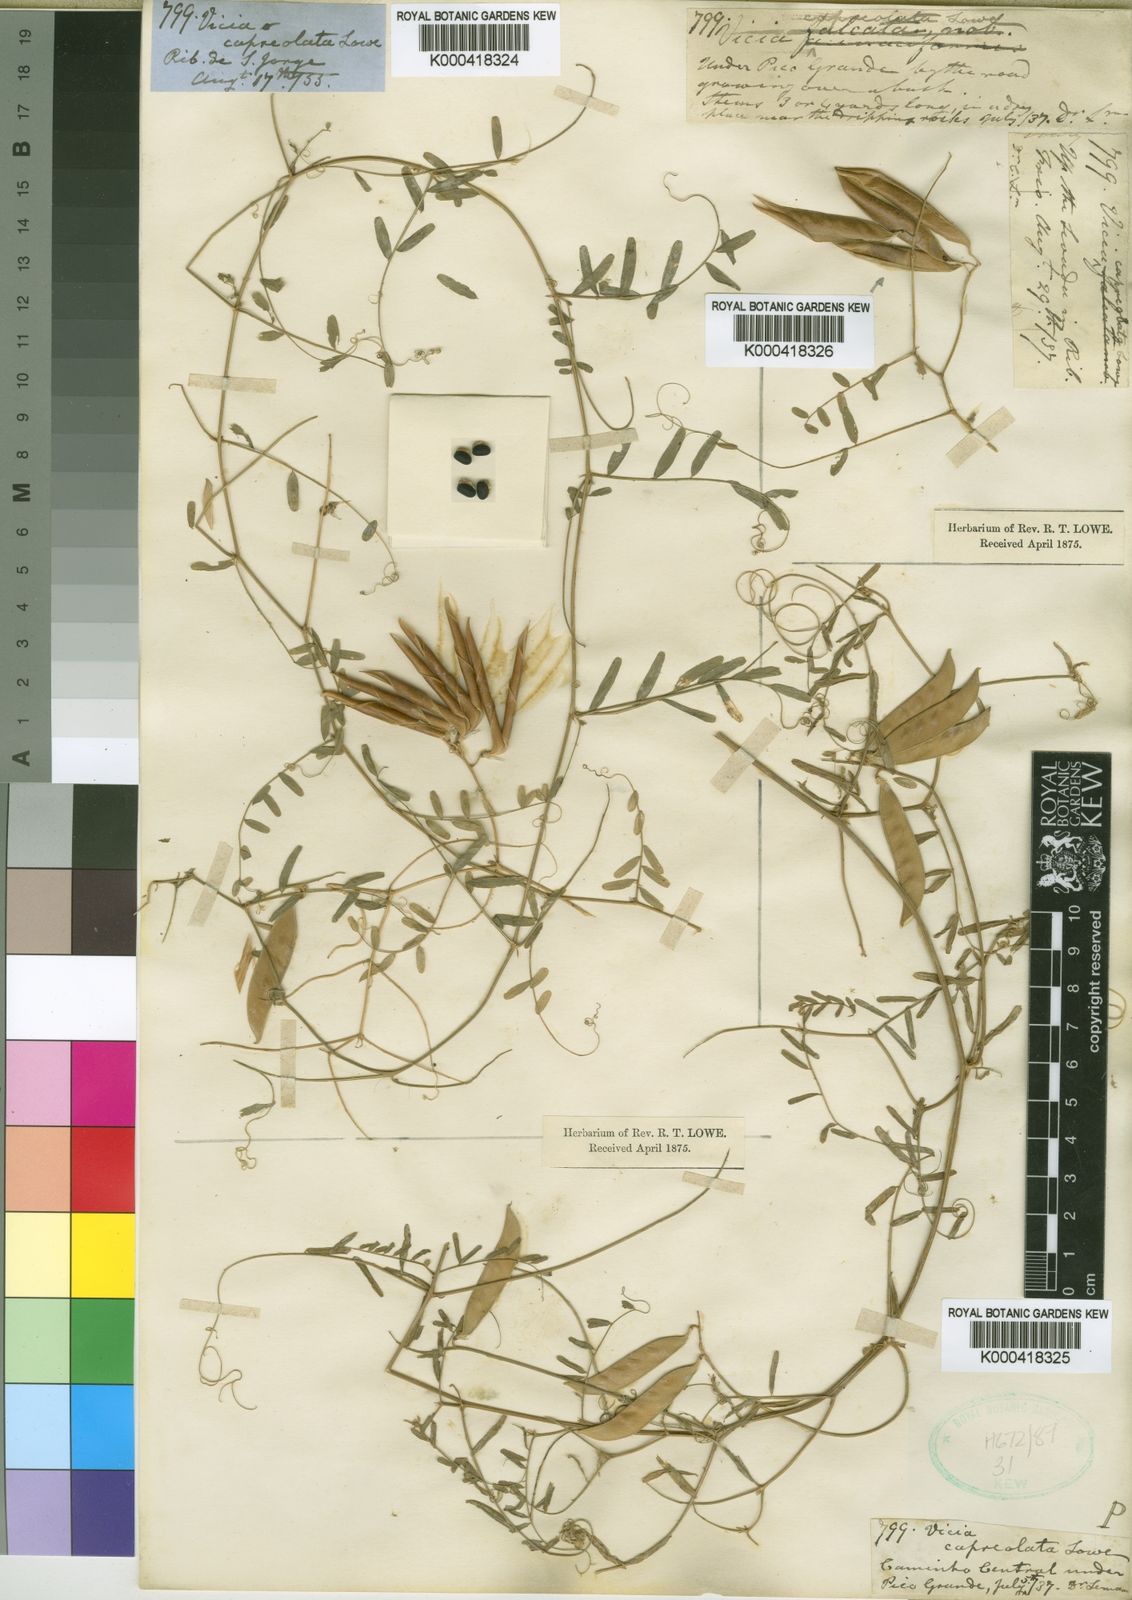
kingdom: Plantae
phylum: Tracheophyta
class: Magnoliopsida
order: Fabales
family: Fabaceae
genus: Vicia
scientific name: Vicia capreolata
